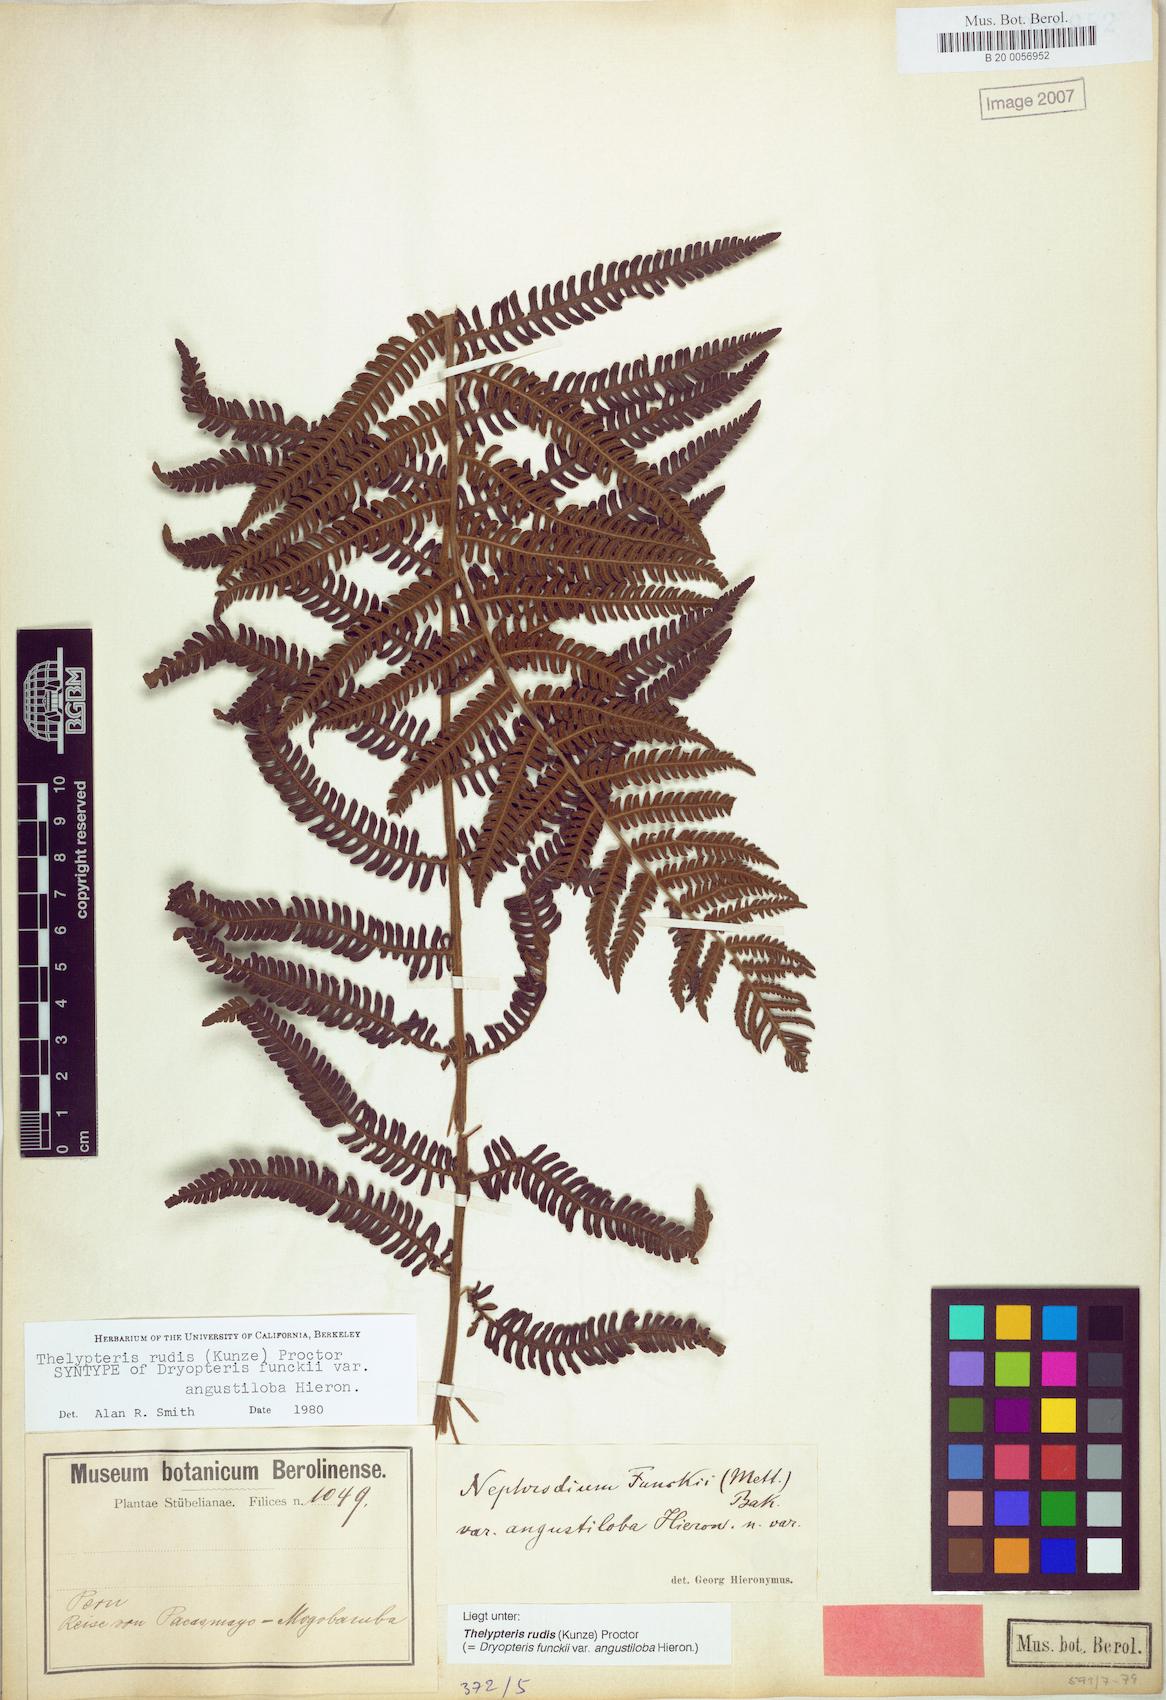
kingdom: Plantae
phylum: Tracheophyta
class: Polypodiopsida
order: Polypodiales
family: Thelypteridaceae
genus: Amauropelta
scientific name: Amauropelta rudis
